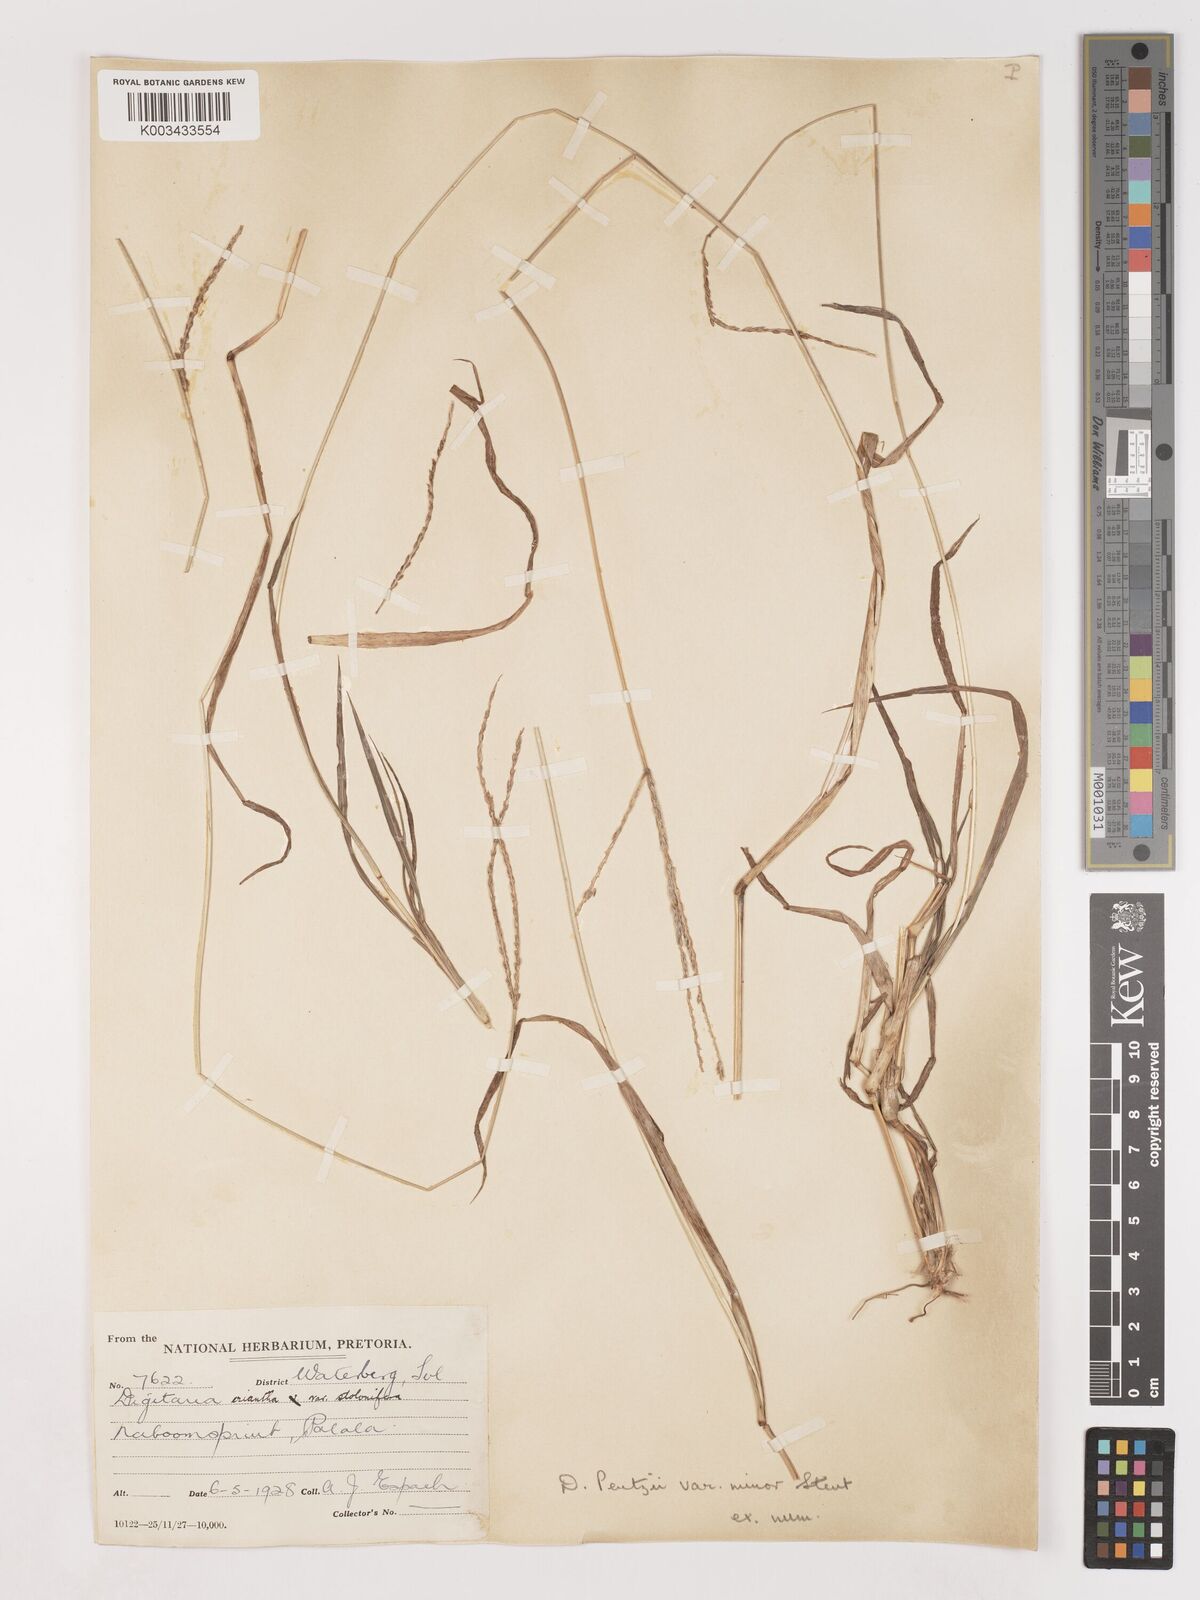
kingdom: Plantae
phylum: Tracheophyta
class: Liliopsida
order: Poales
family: Poaceae
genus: Digitaria
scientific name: Digitaria eriantha
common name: Digitgrass
